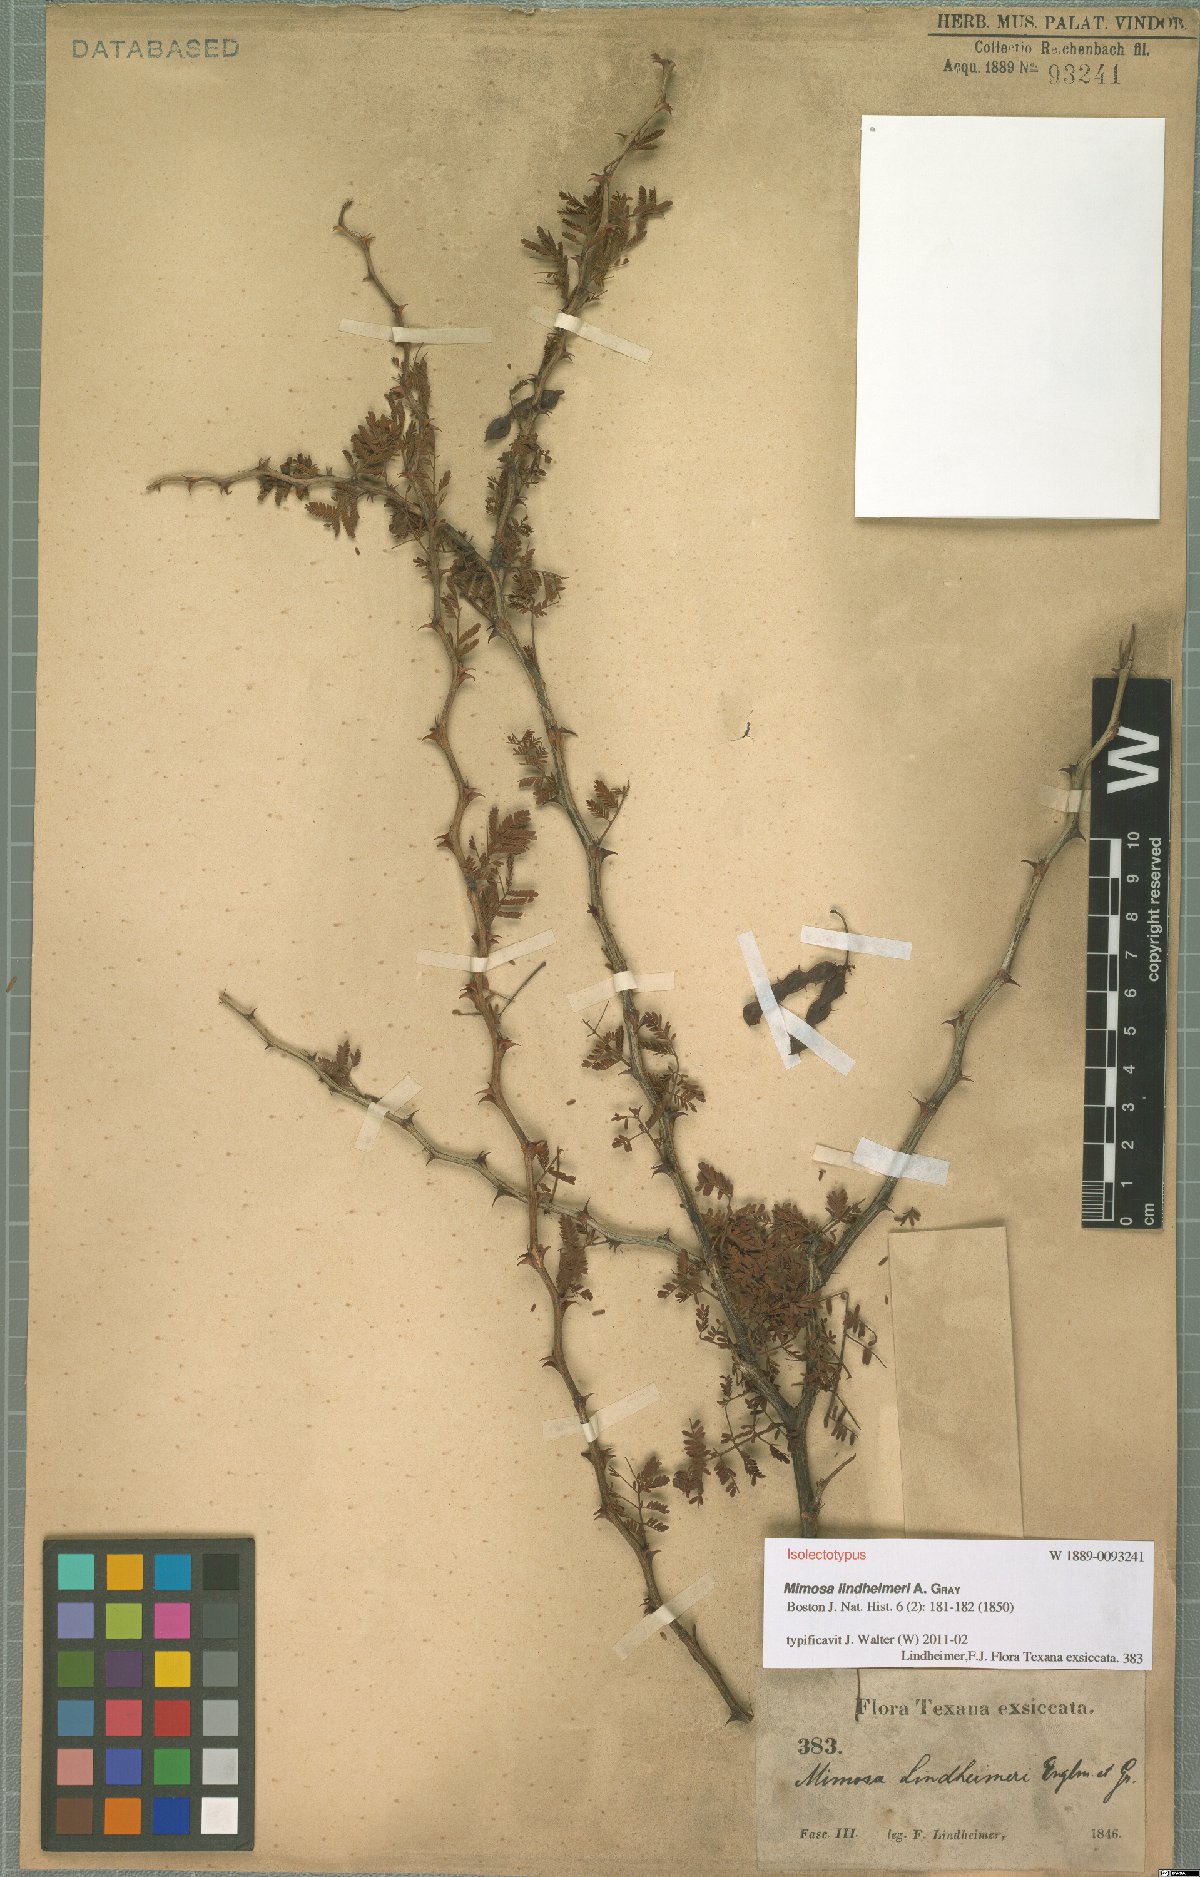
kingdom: Plantae
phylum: Tracheophyta
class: Magnoliopsida
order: Fabales
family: Fabaceae
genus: Mimosa
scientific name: Mimosa biuncifera
